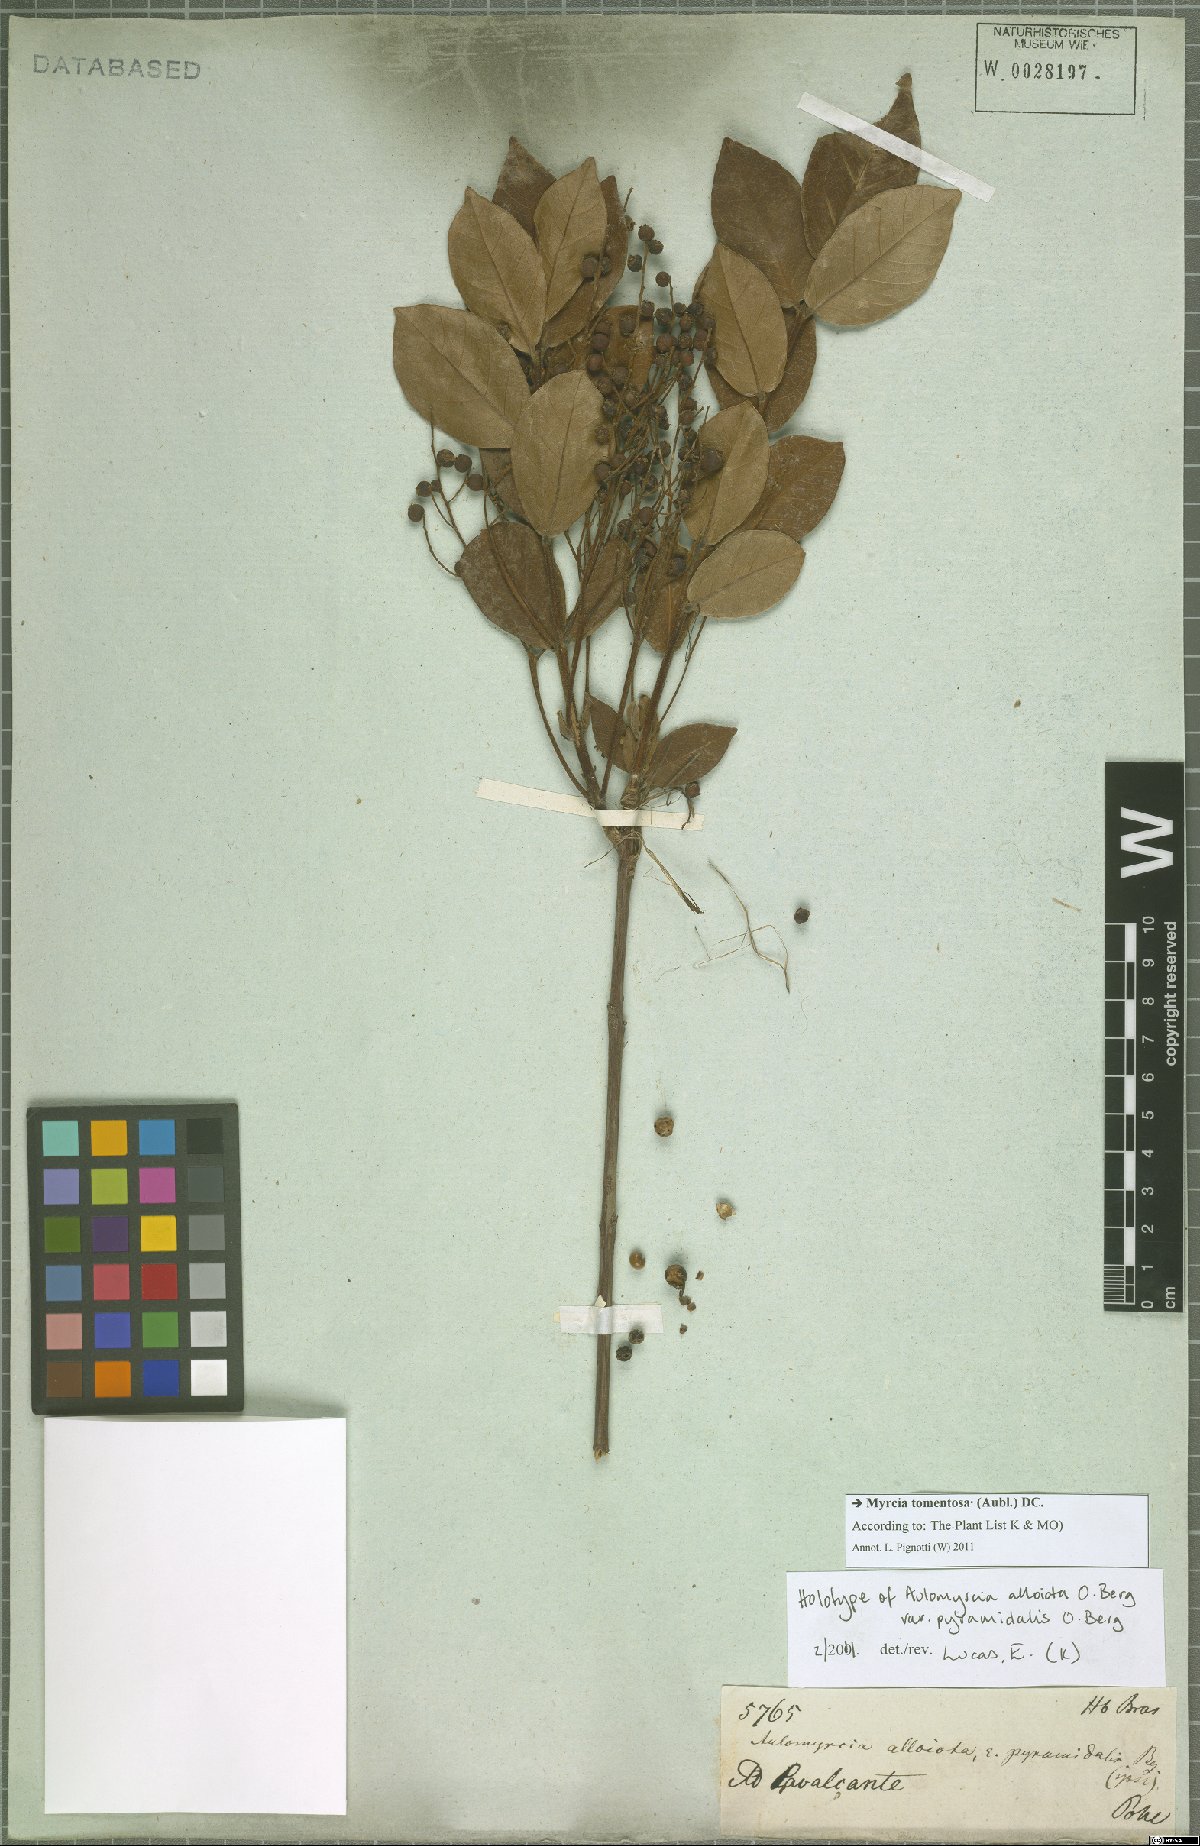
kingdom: Plantae
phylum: Tracheophyta
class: Magnoliopsida
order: Myrtales
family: Myrtaceae
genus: Myrcia
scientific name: Myrcia tomentosa
